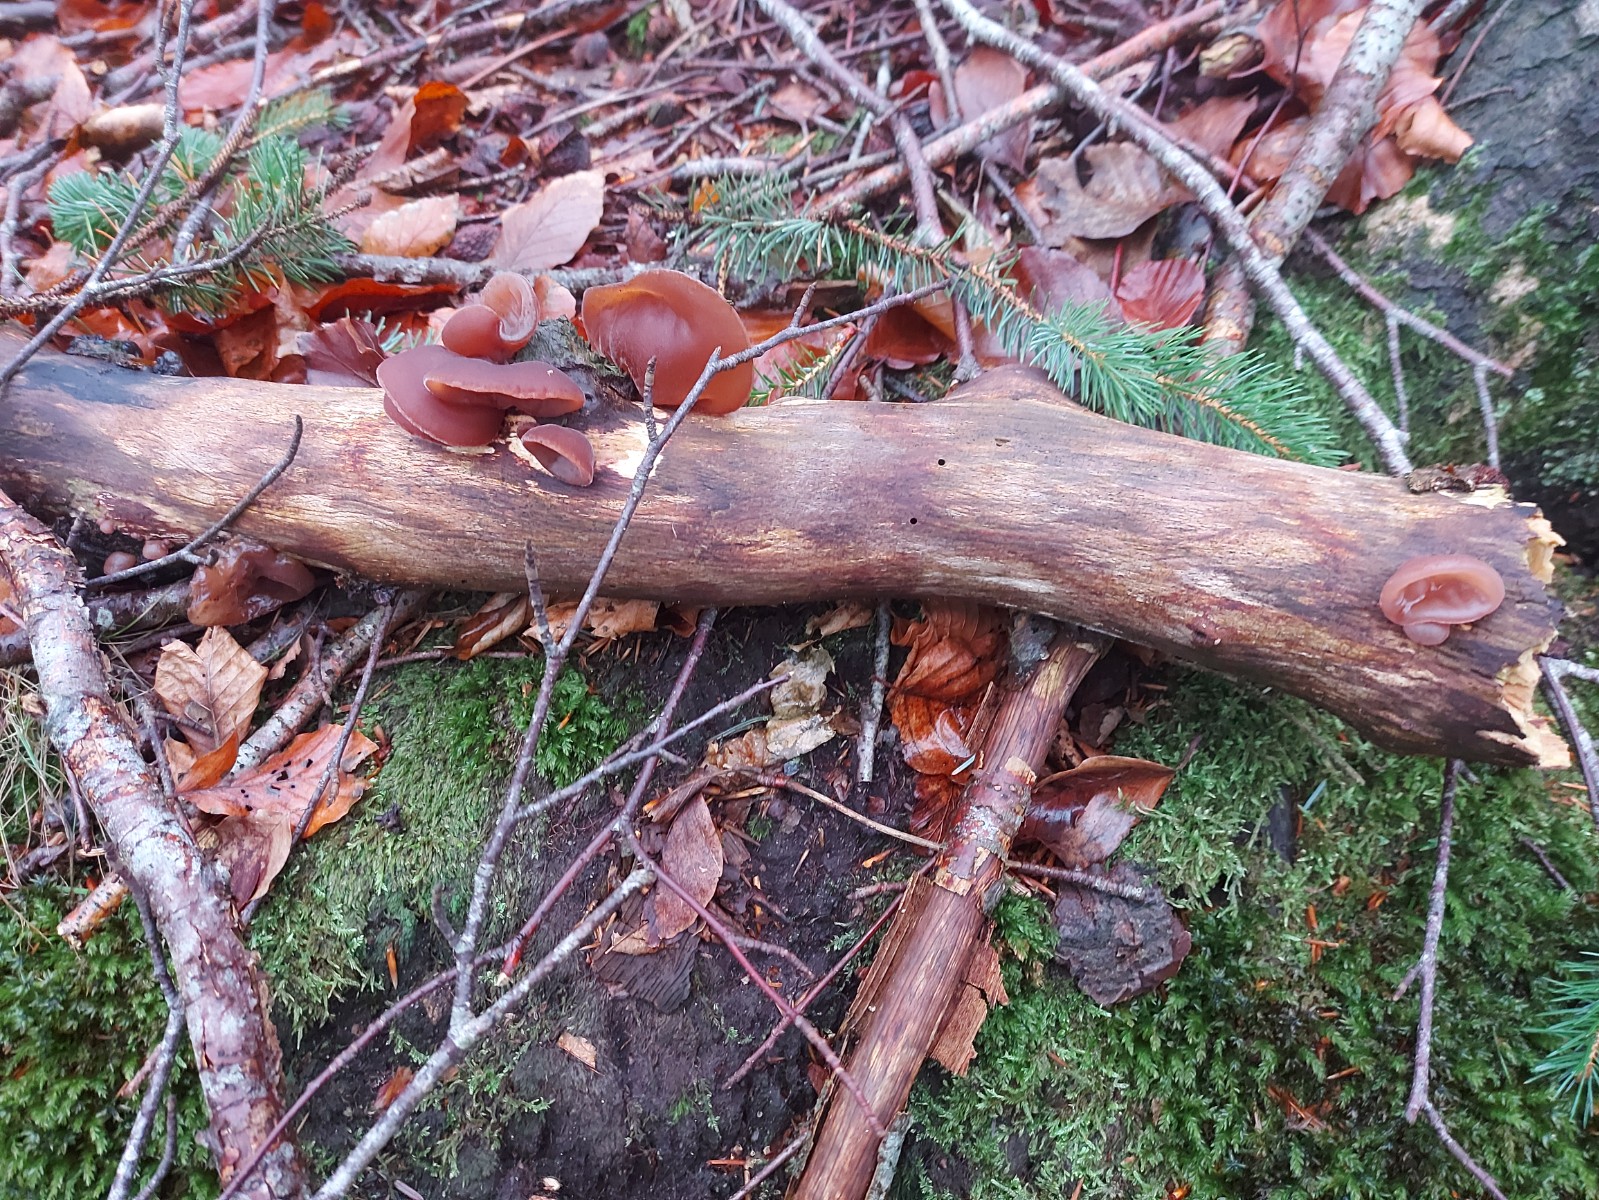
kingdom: Fungi
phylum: Basidiomycota
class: Agaricomycetes
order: Auriculariales
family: Auriculariaceae
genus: Auricularia
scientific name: Auricularia auricula-judae
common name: almindelig judasøre
